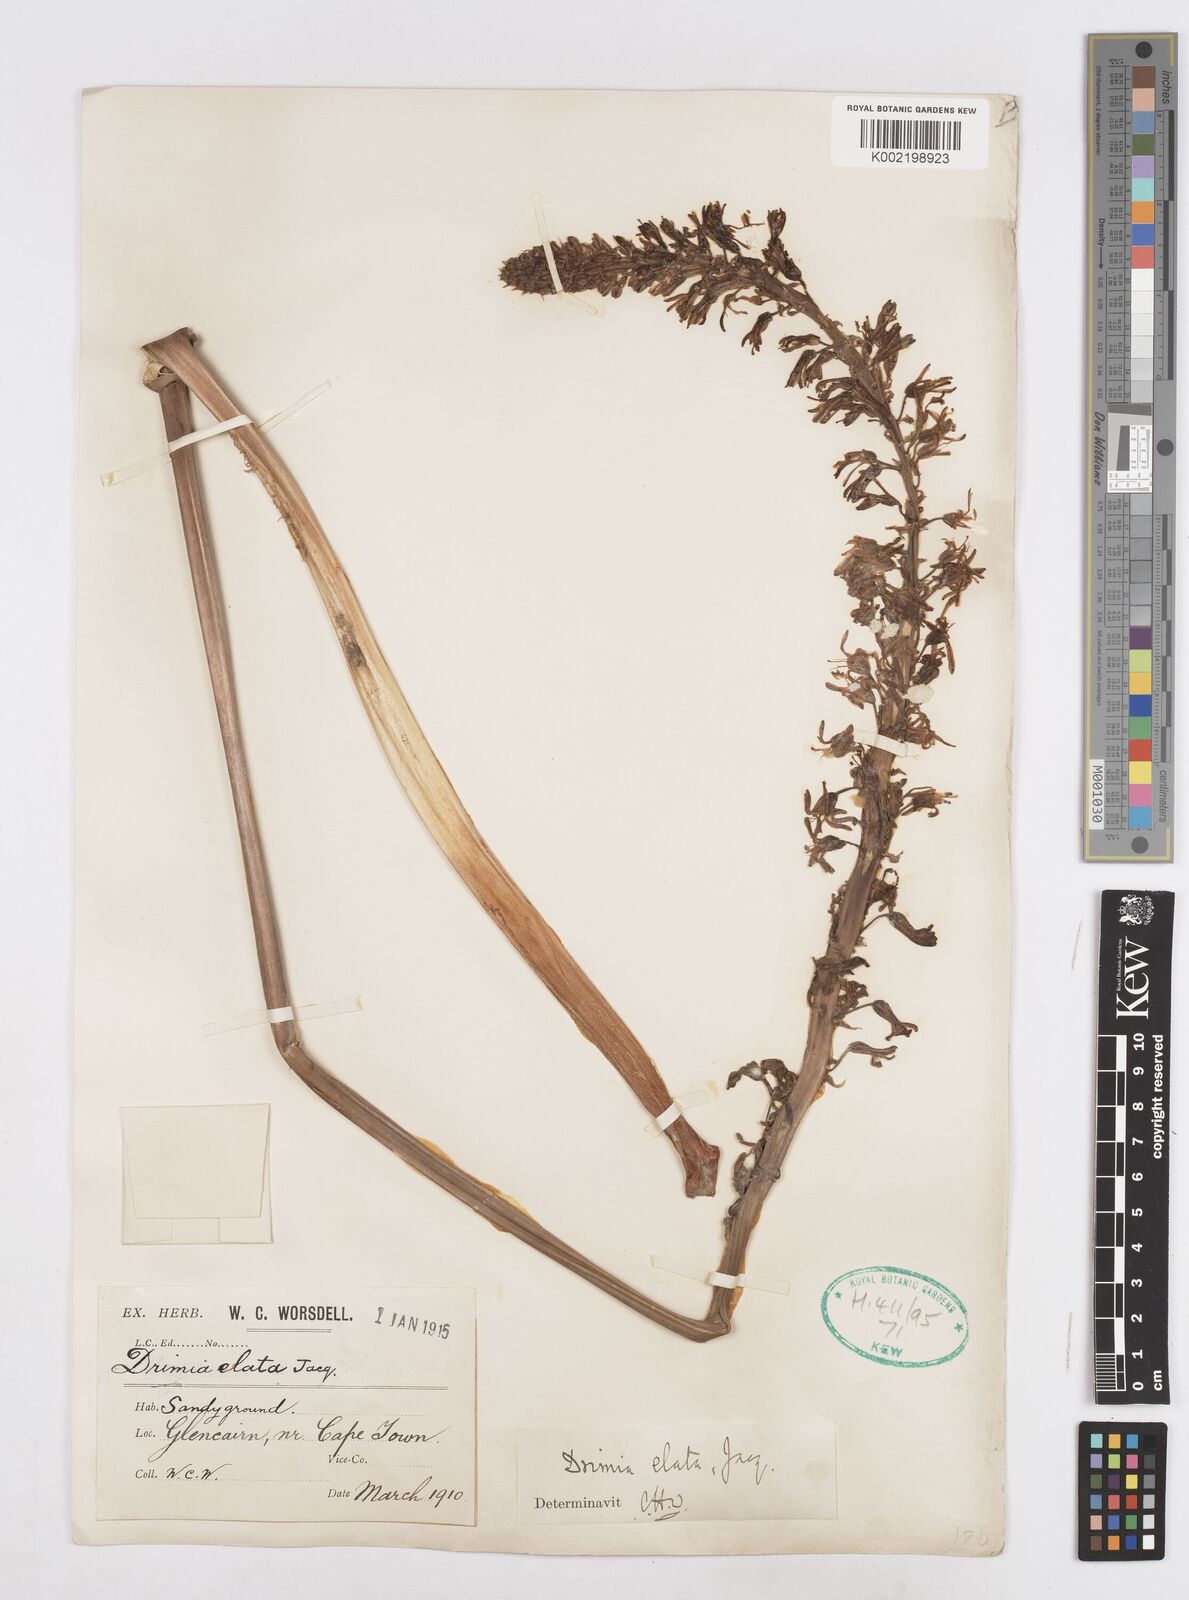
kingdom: Plantae
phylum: Tracheophyta
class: Liliopsida
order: Asparagales
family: Asparagaceae
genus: Drimia
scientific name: Drimia elata
